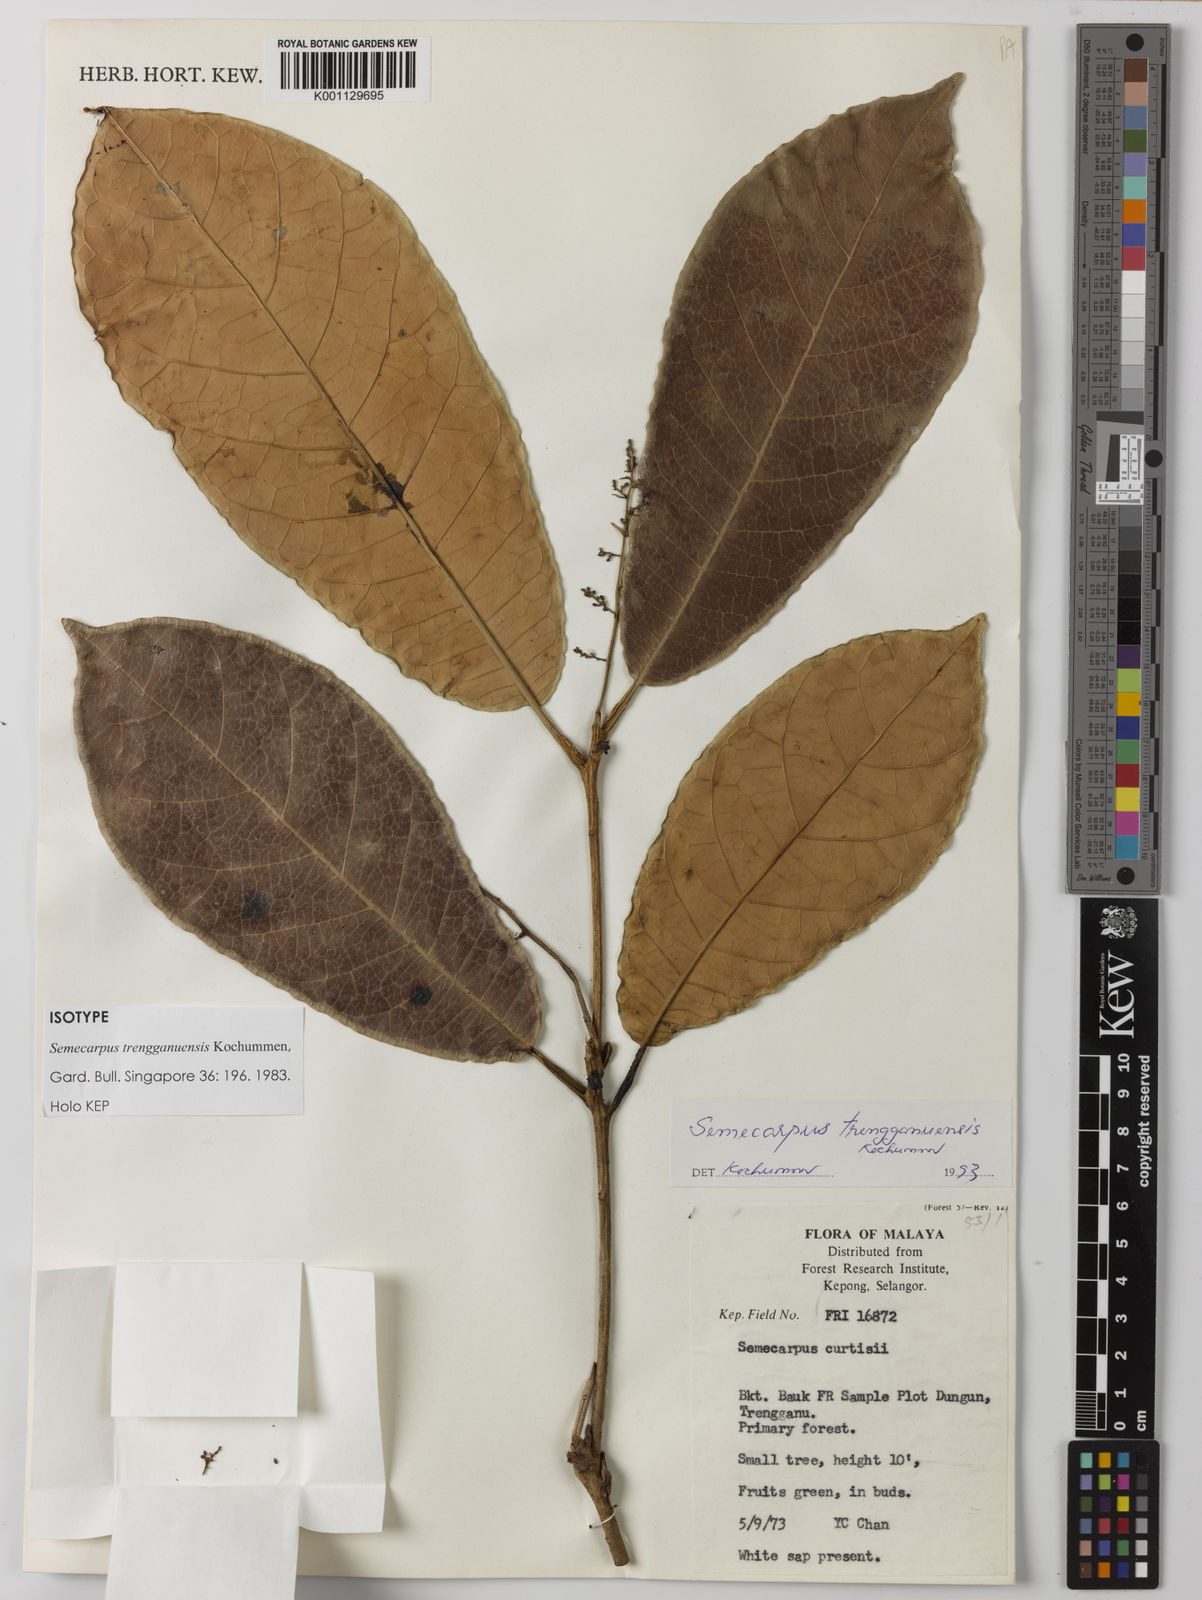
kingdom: Plantae
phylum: Tracheophyta
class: Magnoliopsida
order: Sapindales
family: Anacardiaceae
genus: Semecarpus
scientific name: Semecarpus trengganuensis
